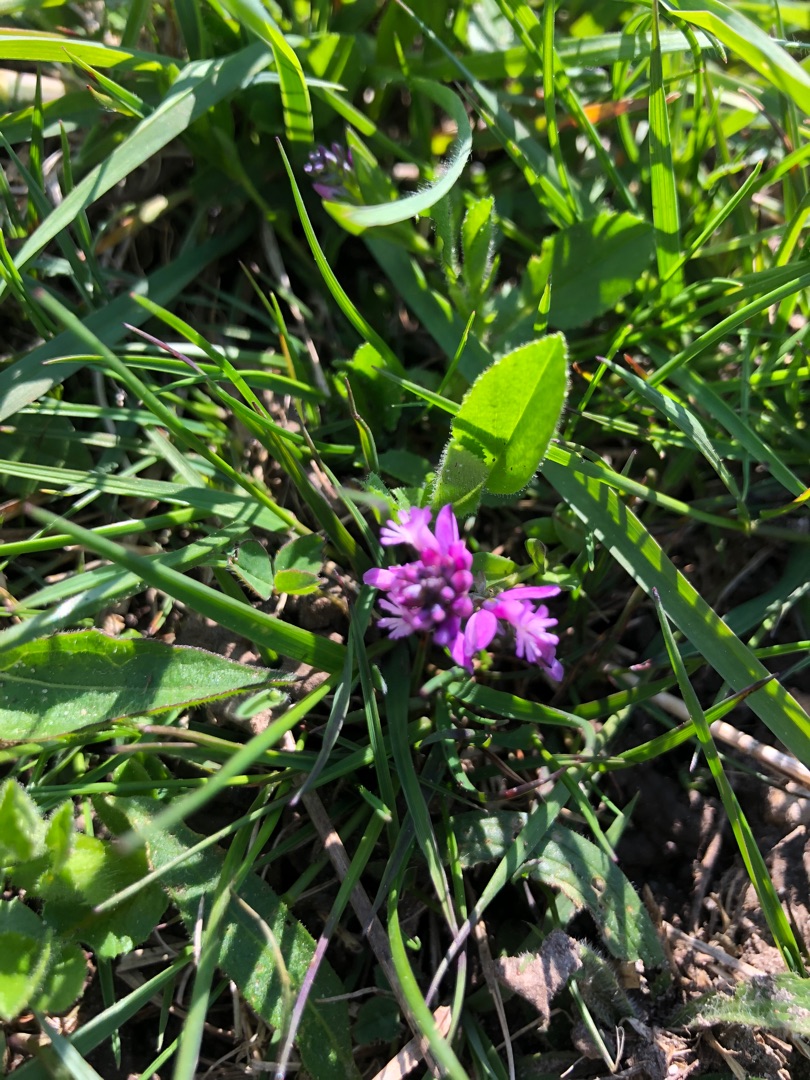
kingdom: Plantae
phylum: Tracheophyta
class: Magnoliopsida
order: Fabales
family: Polygalaceae
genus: Polygala
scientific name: Polygala vulgaris
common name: Almindelig mælkeurt
